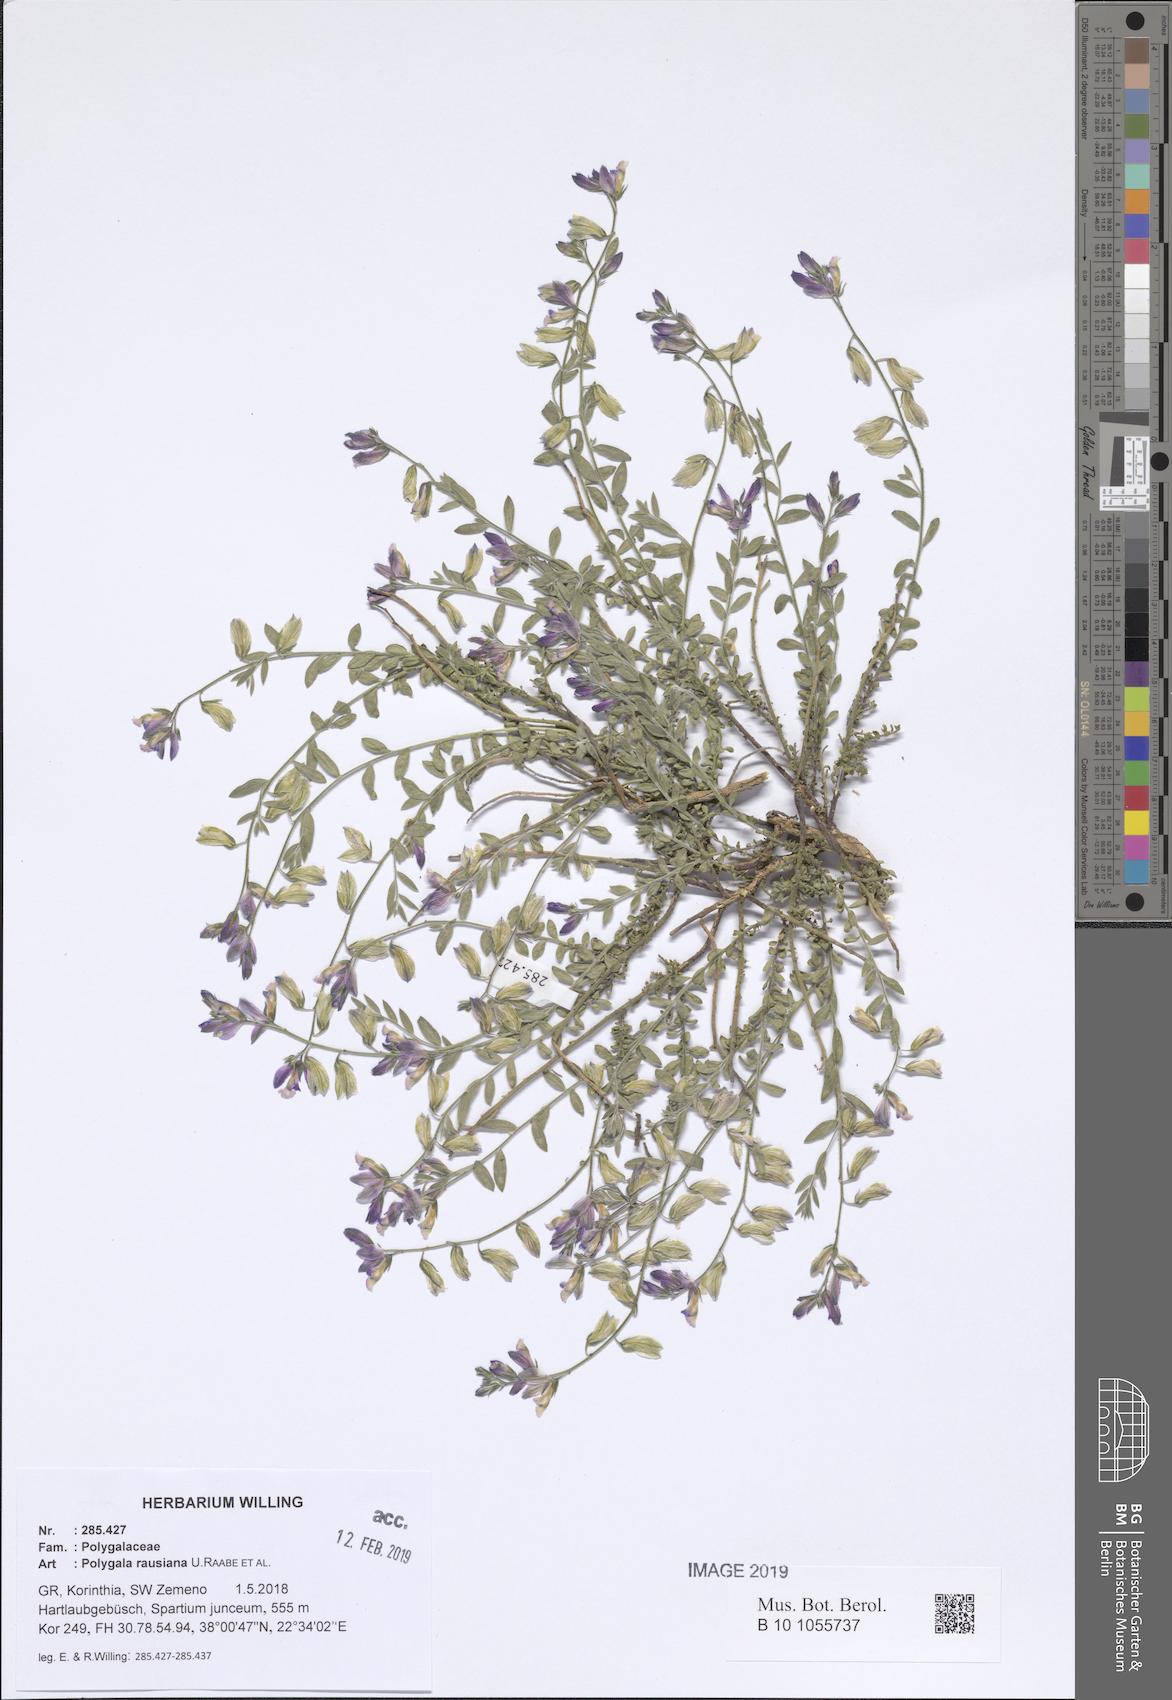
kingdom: Plantae
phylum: Tracheophyta
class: Magnoliopsida
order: Fabales
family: Polygalaceae
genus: Polygala
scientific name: Polygala rausiana
